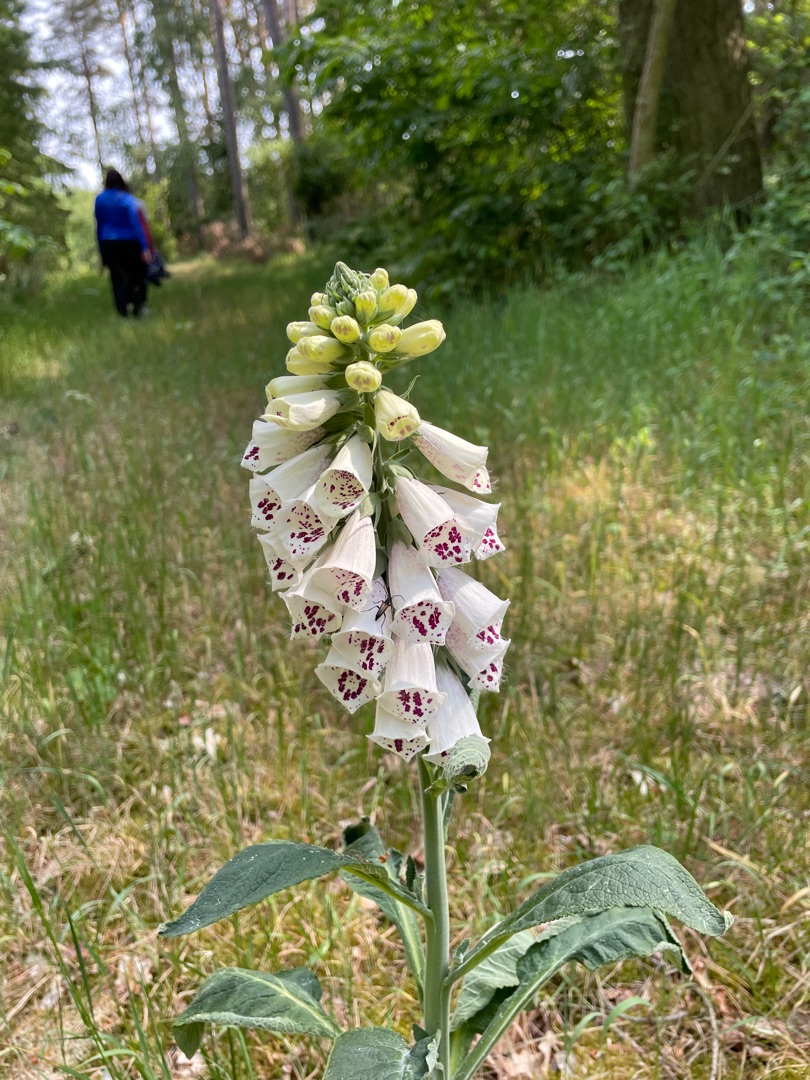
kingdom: Plantae
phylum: Tracheophyta
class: Magnoliopsida
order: Lamiales
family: Plantaginaceae
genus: Digitalis
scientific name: Digitalis purpurea
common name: Almindelig fingerbøl
